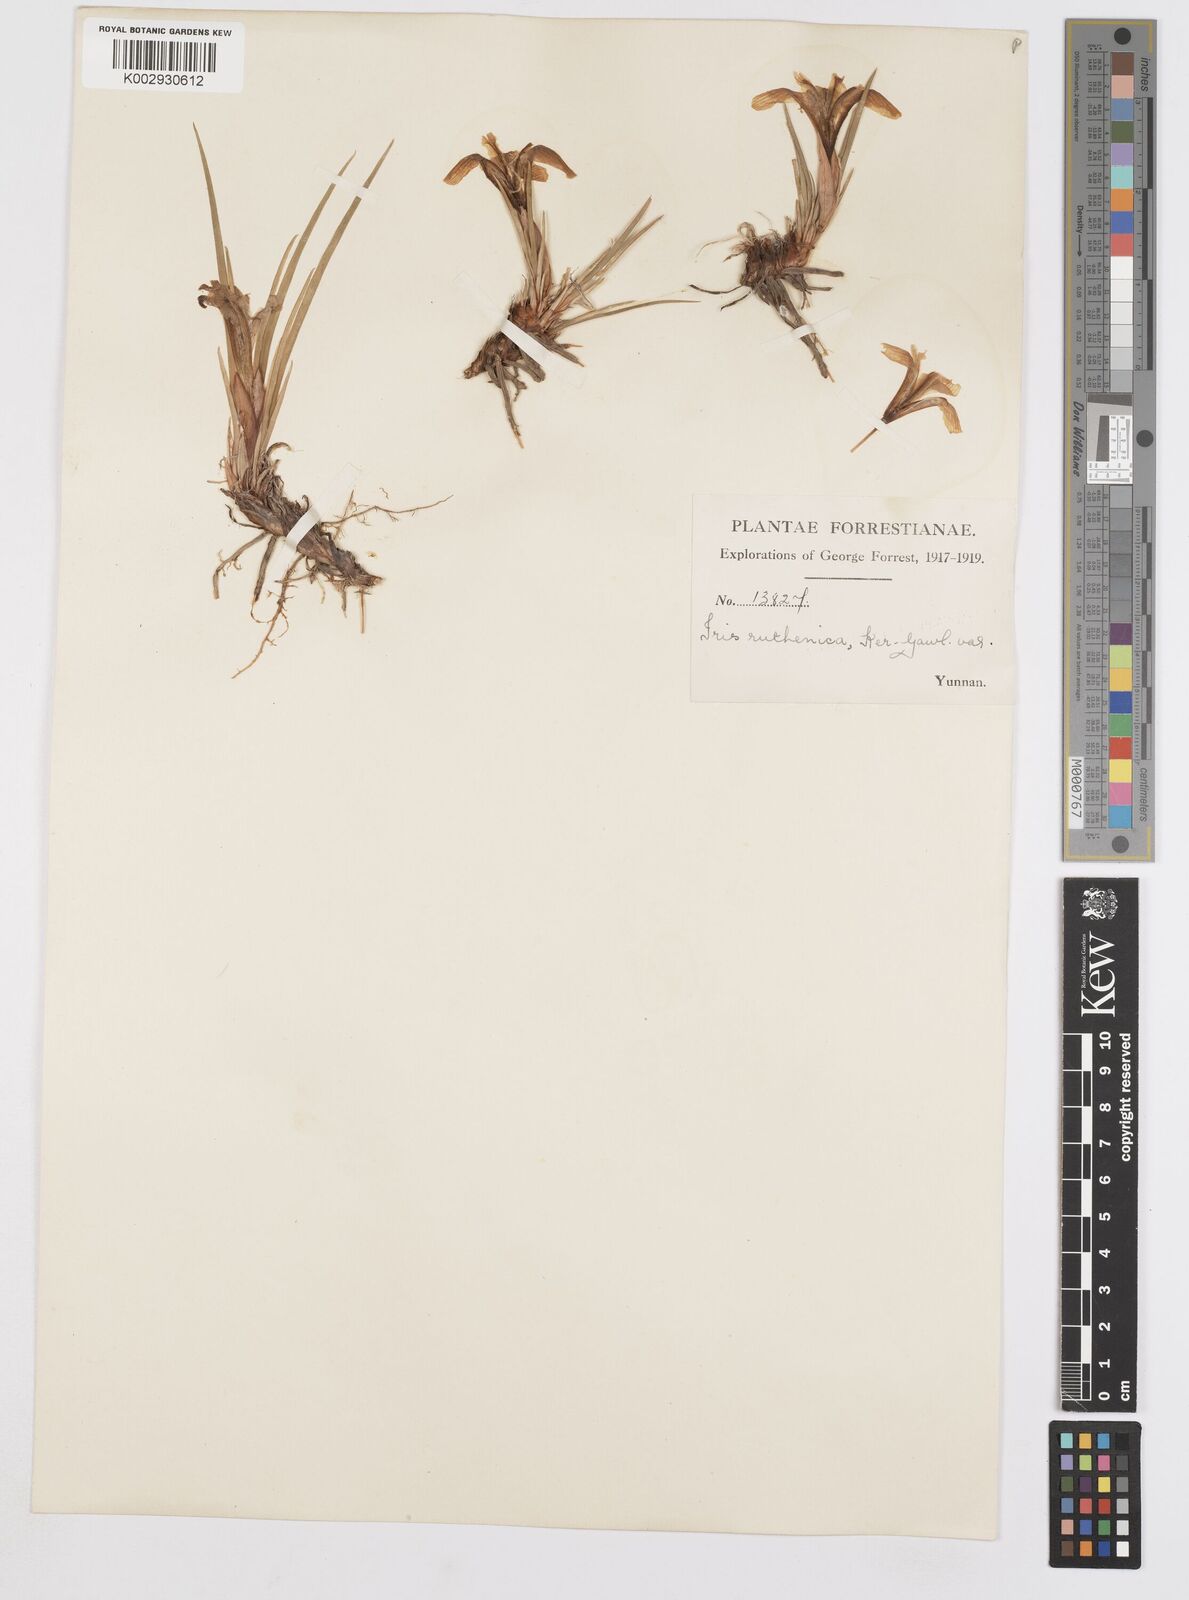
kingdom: Plantae
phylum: Tracheophyta
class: Liliopsida
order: Asparagales
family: Iridaceae
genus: Iris
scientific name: Iris ruthenica
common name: Purple-bract iris
